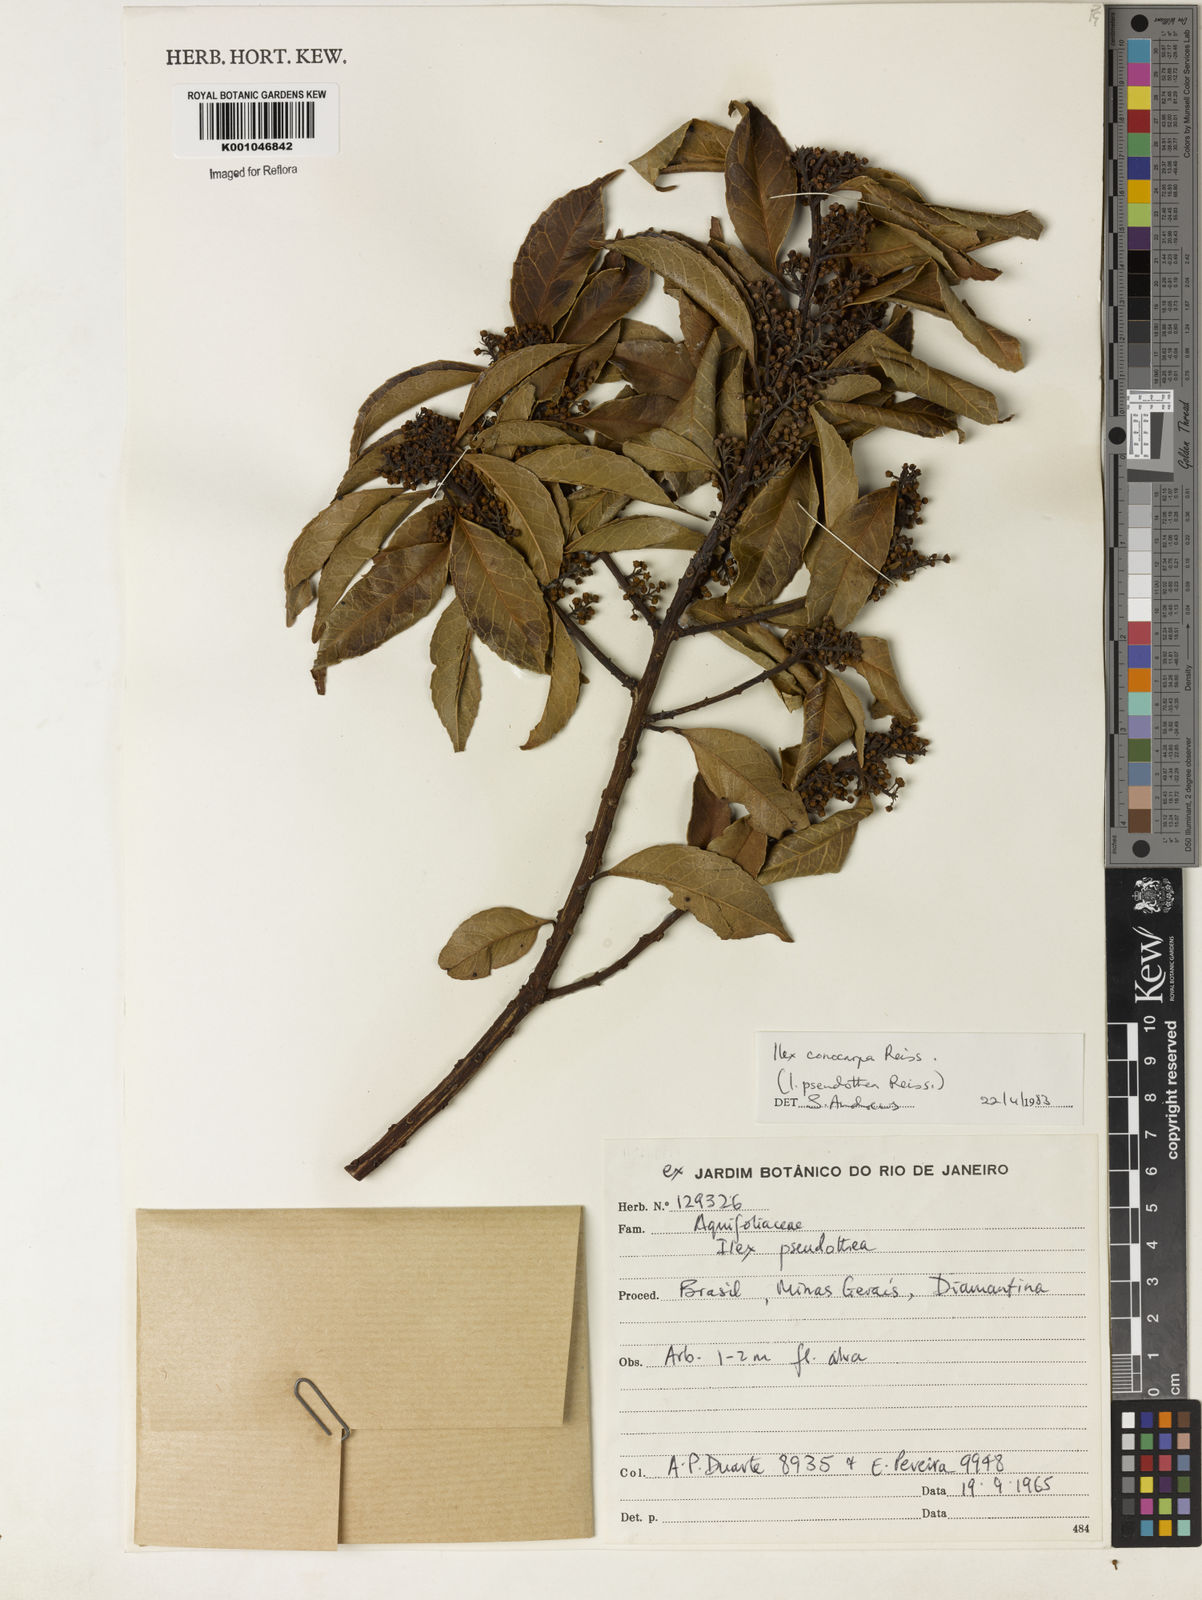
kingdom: Plantae
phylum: Tracheophyta
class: Magnoliopsida
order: Aquifoliales
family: Aquifoliaceae
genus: Ilex
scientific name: Ilex conocarpa
